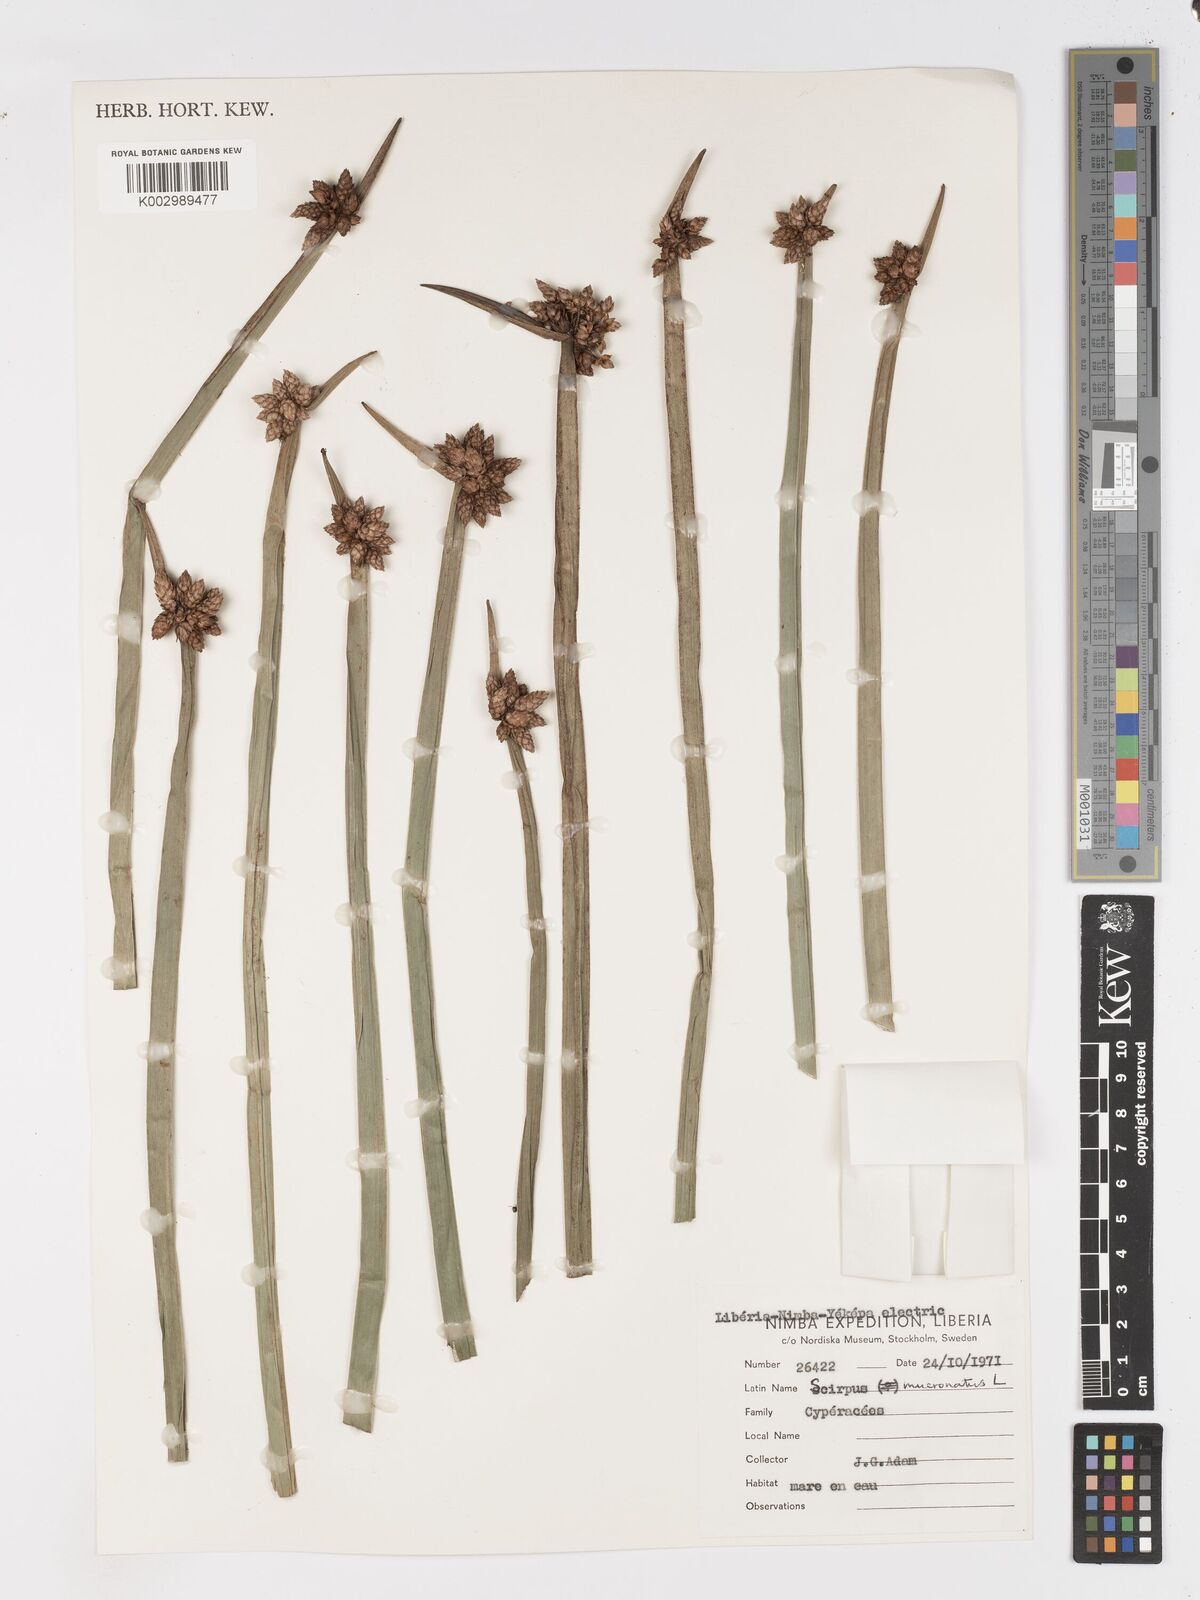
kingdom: Plantae
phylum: Tracheophyta
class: Liliopsida
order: Poales
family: Cyperaceae
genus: Schoenoplectiella
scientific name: Schoenoplectiella mucronata
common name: Bog bulrush
